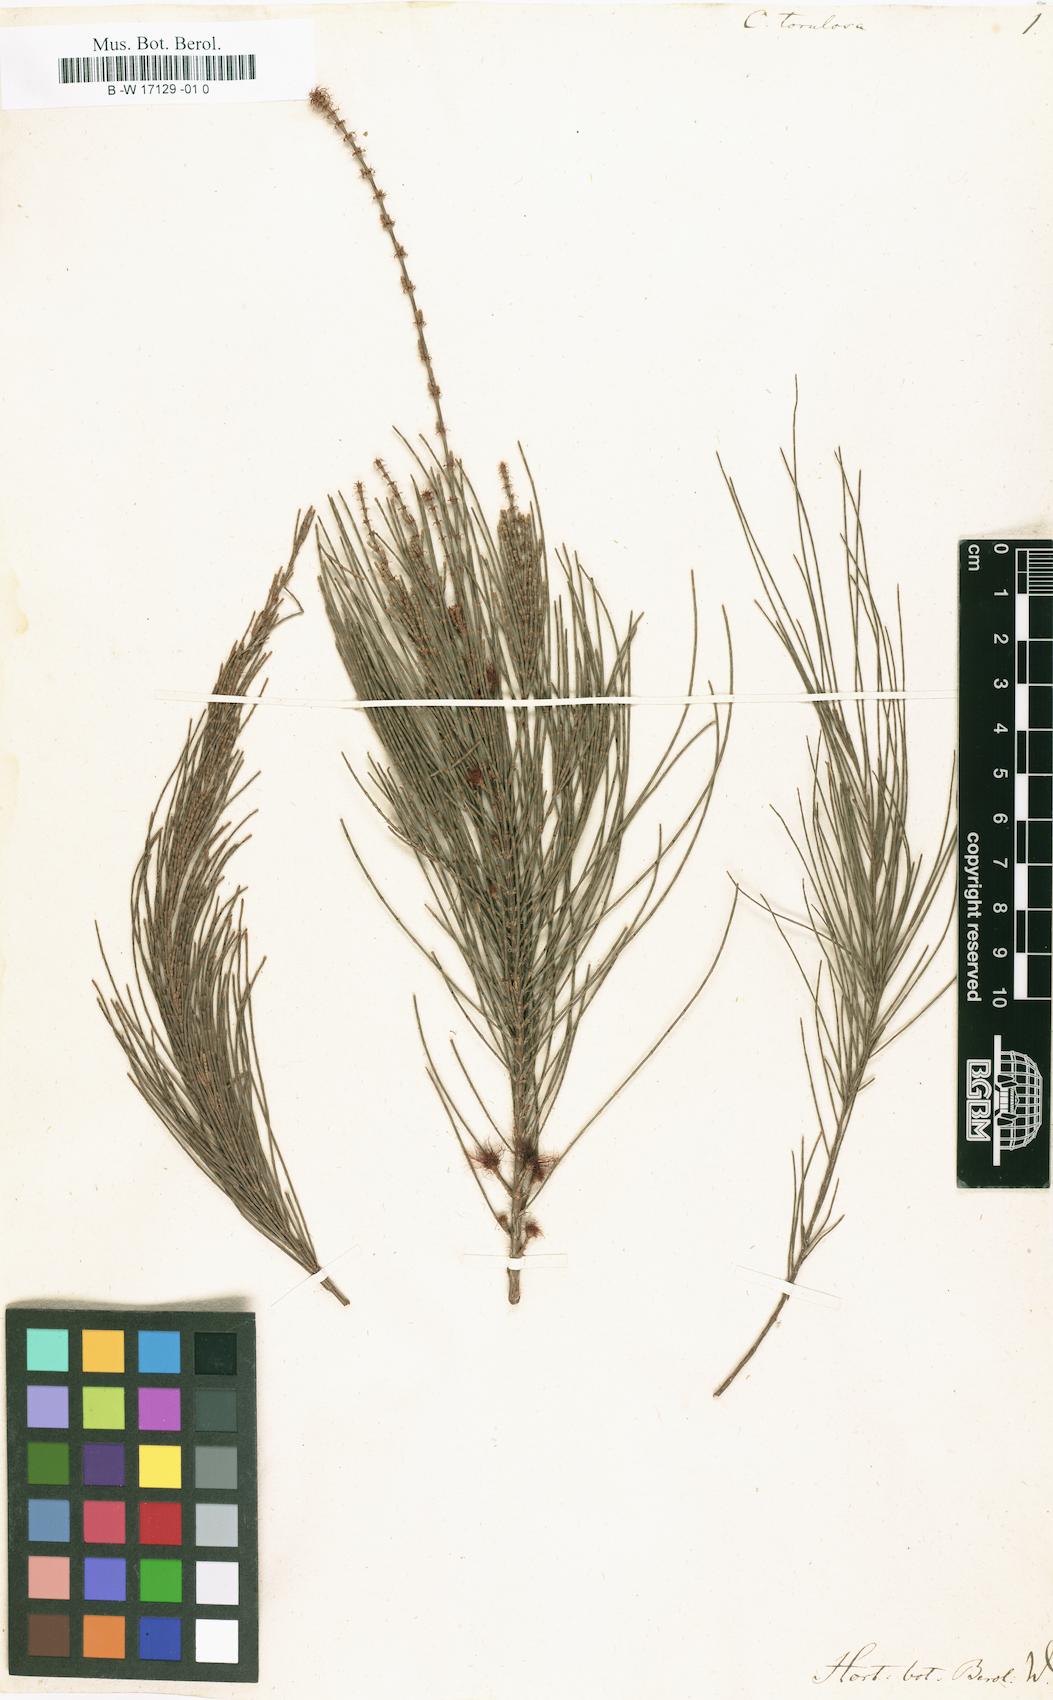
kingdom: Plantae
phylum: Tracheophyta
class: Magnoliopsida
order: Fagales
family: Casuarinaceae
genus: Allocasuarina
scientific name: Allocasuarina torulosa
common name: Forest-oak
